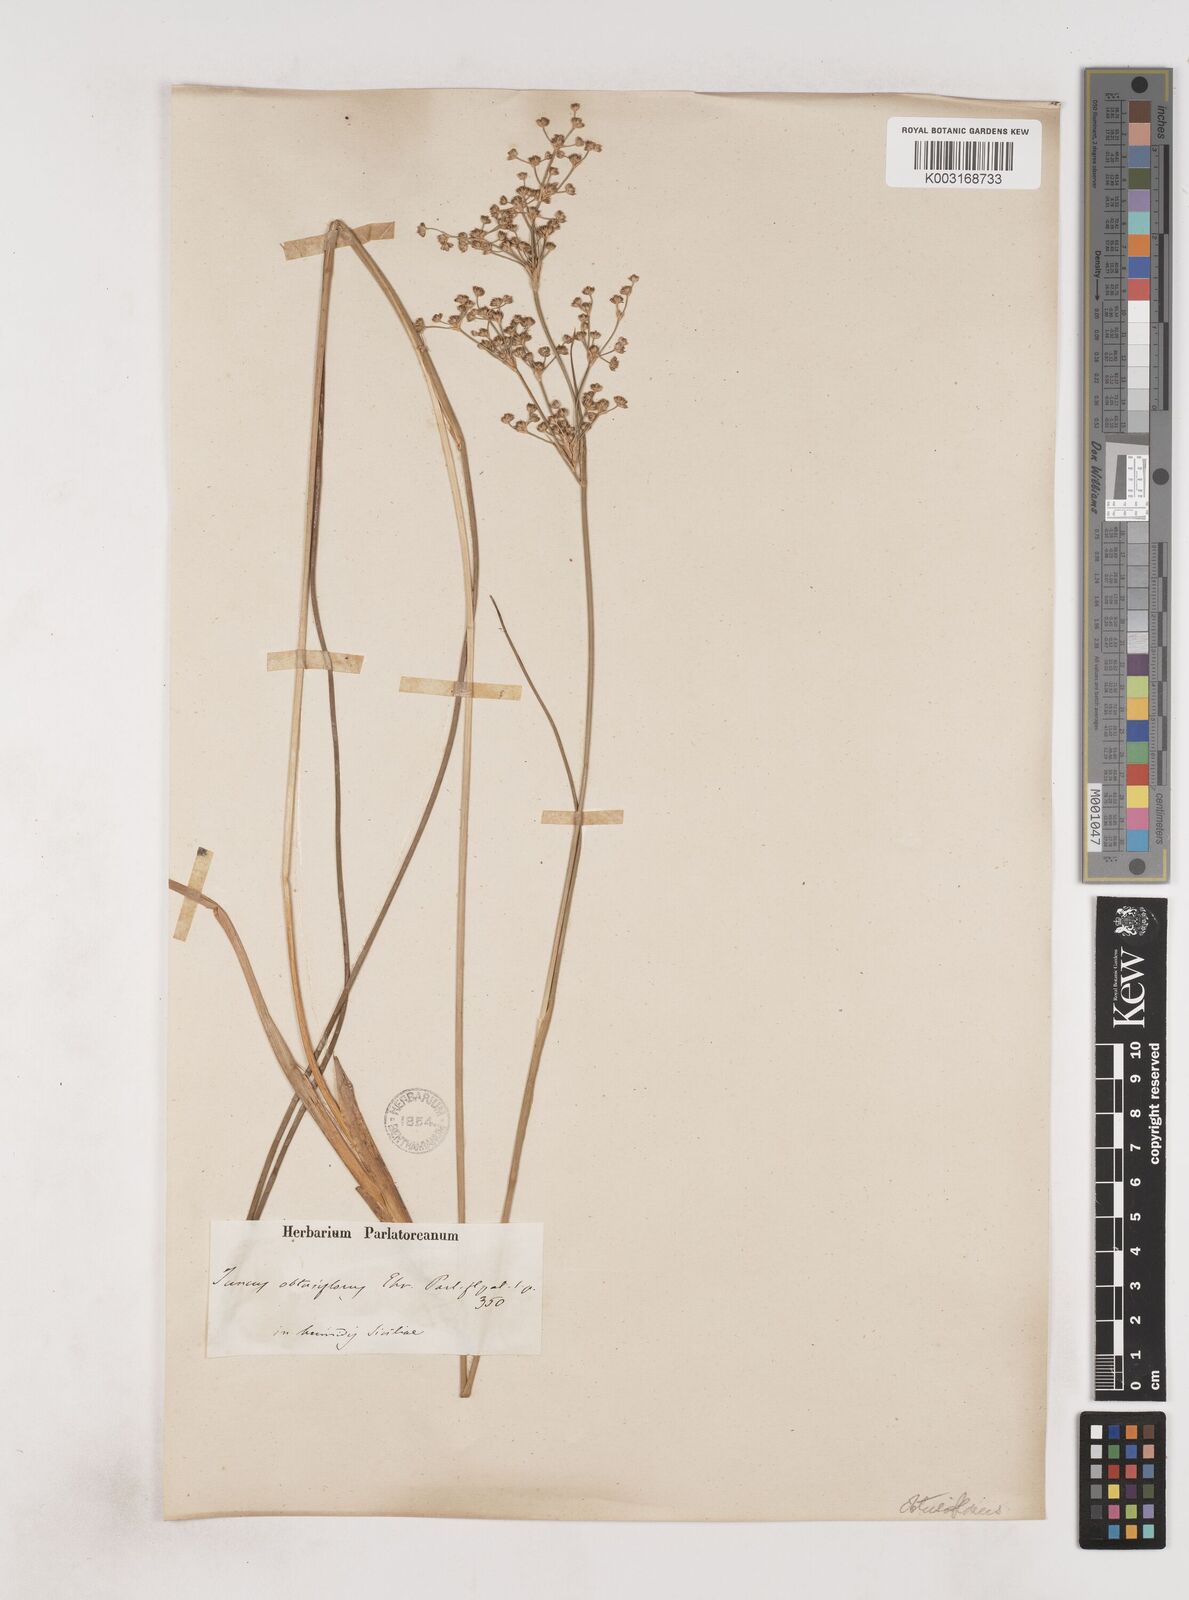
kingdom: Plantae
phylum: Tracheophyta
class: Liliopsida
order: Poales
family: Juncaceae
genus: Juncus
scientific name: Juncus subnodulosus
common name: Blunt-flowered rush
